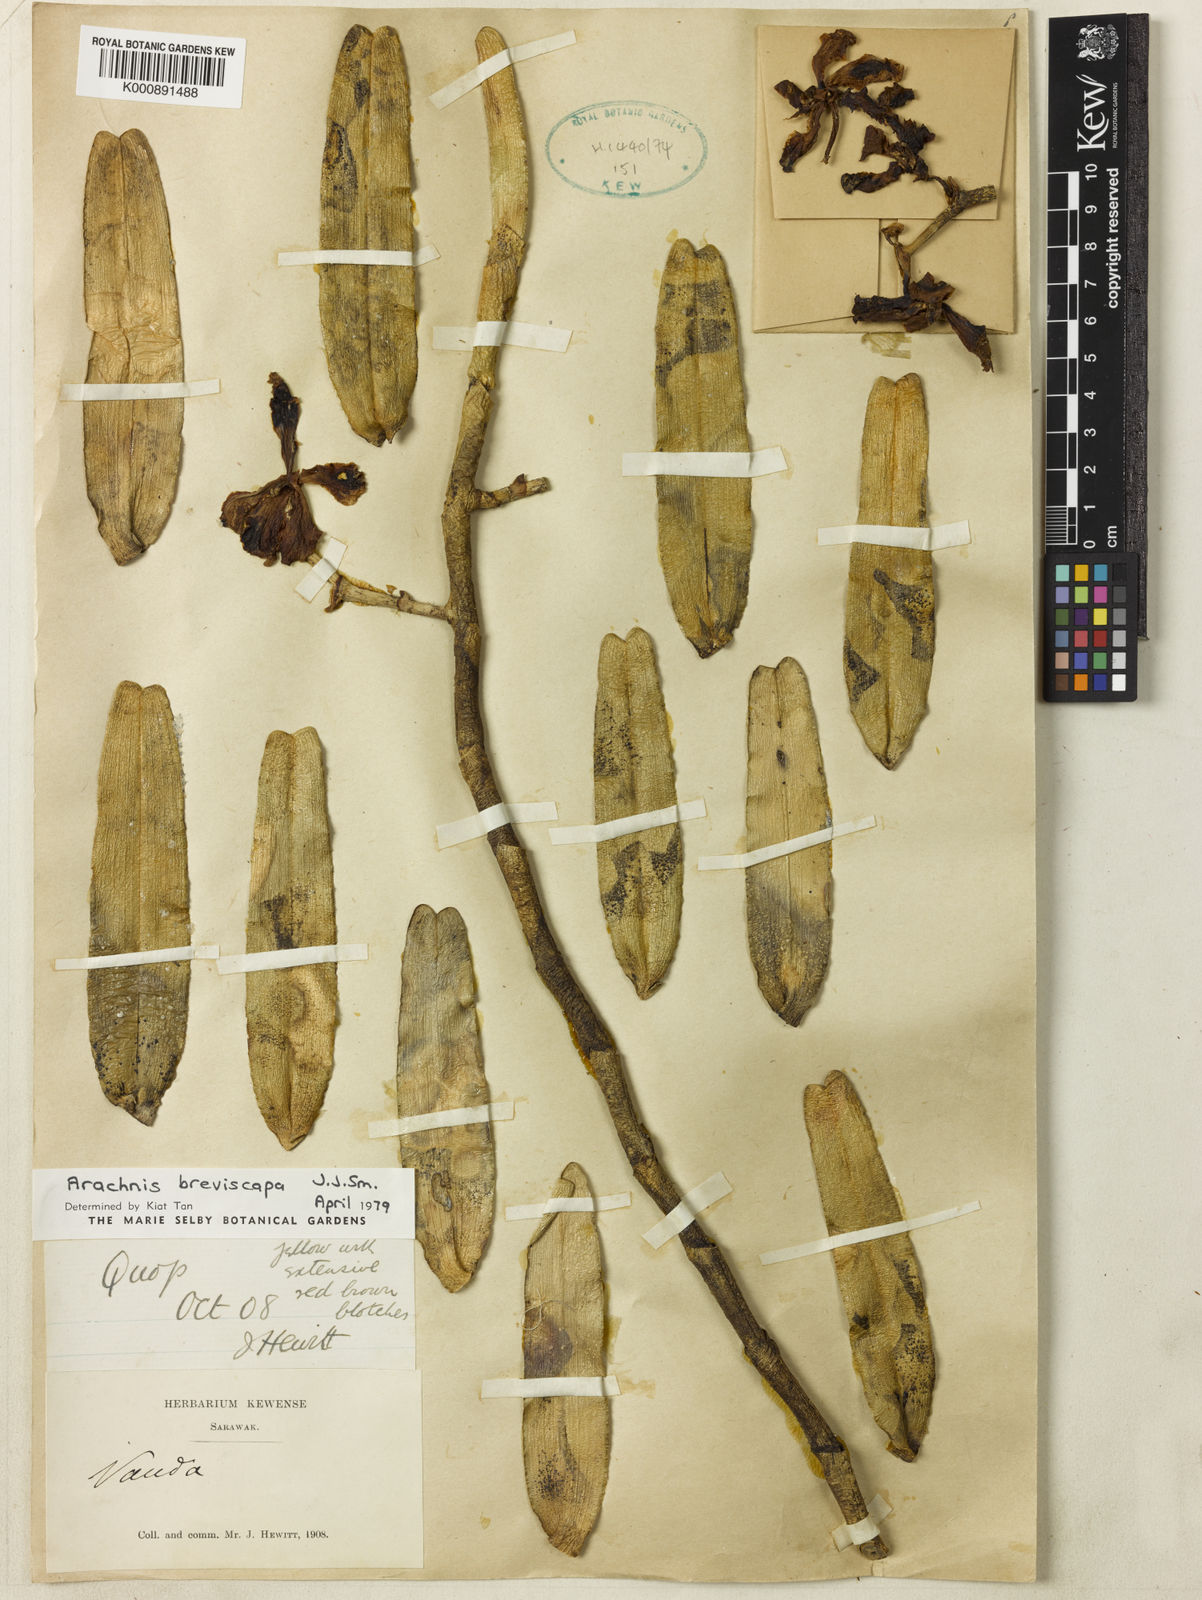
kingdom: Plantae
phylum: Tracheophyta
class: Liliopsida
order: Asparagales
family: Orchidaceae
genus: Dimorphorchis
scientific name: Dimorphorchis breviscapa
